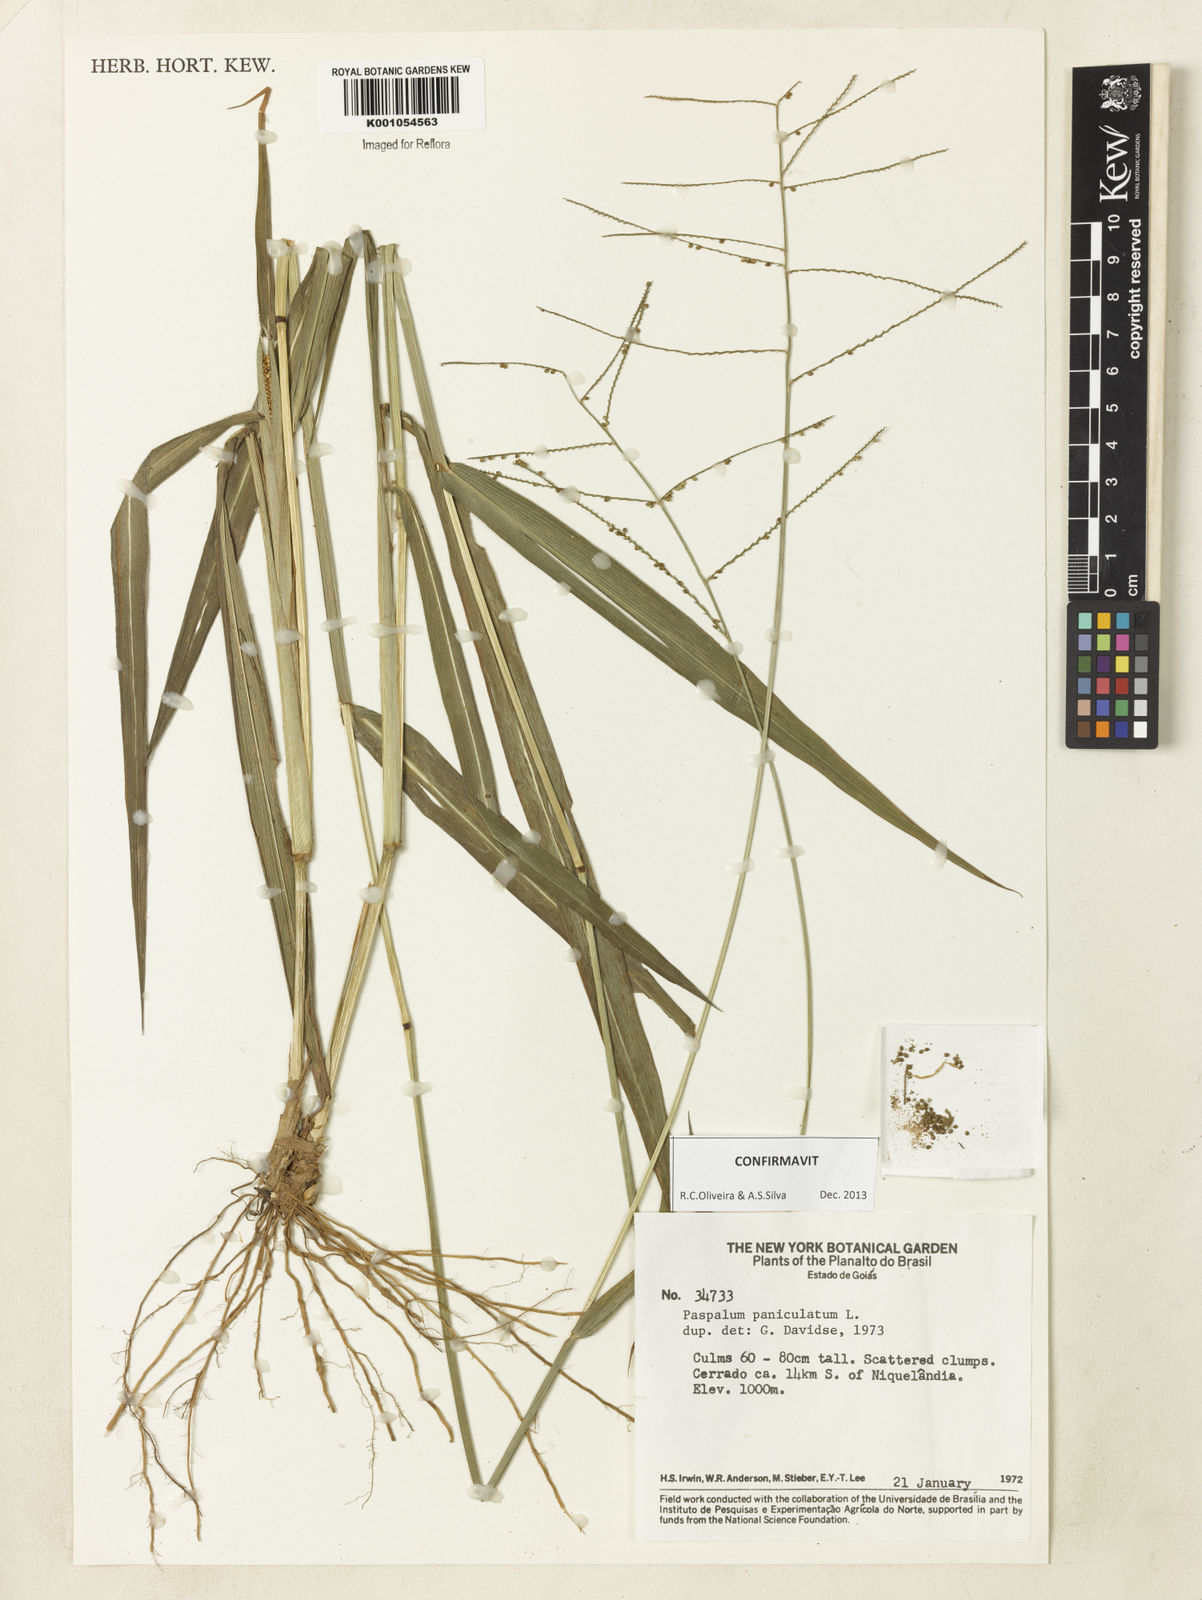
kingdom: Plantae
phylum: Tracheophyta
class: Liliopsida
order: Poales
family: Poaceae
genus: Paspalum
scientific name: Paspalum paniculatum
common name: Arrocillo
